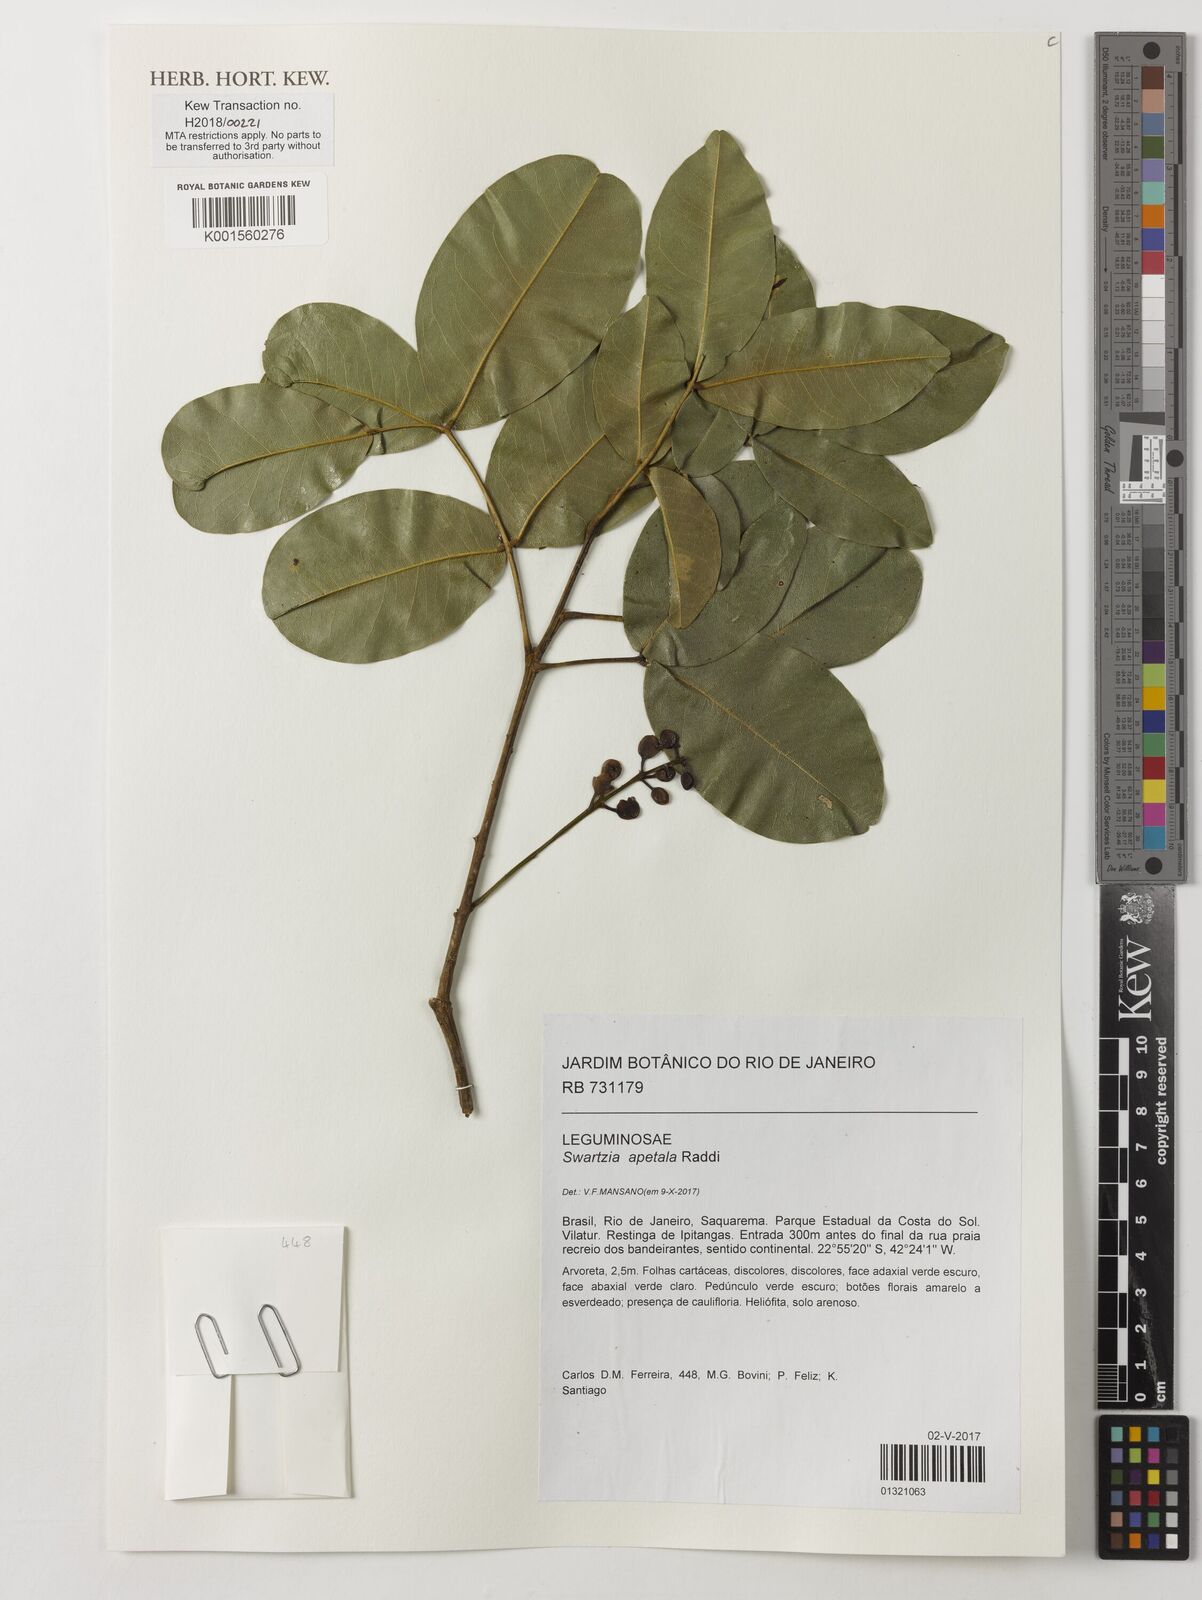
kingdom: Plantae
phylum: Tracheophyta
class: Magnoliopsida
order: Fabales
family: Fabaceae
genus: Swartzia
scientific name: Swartzia apetala
